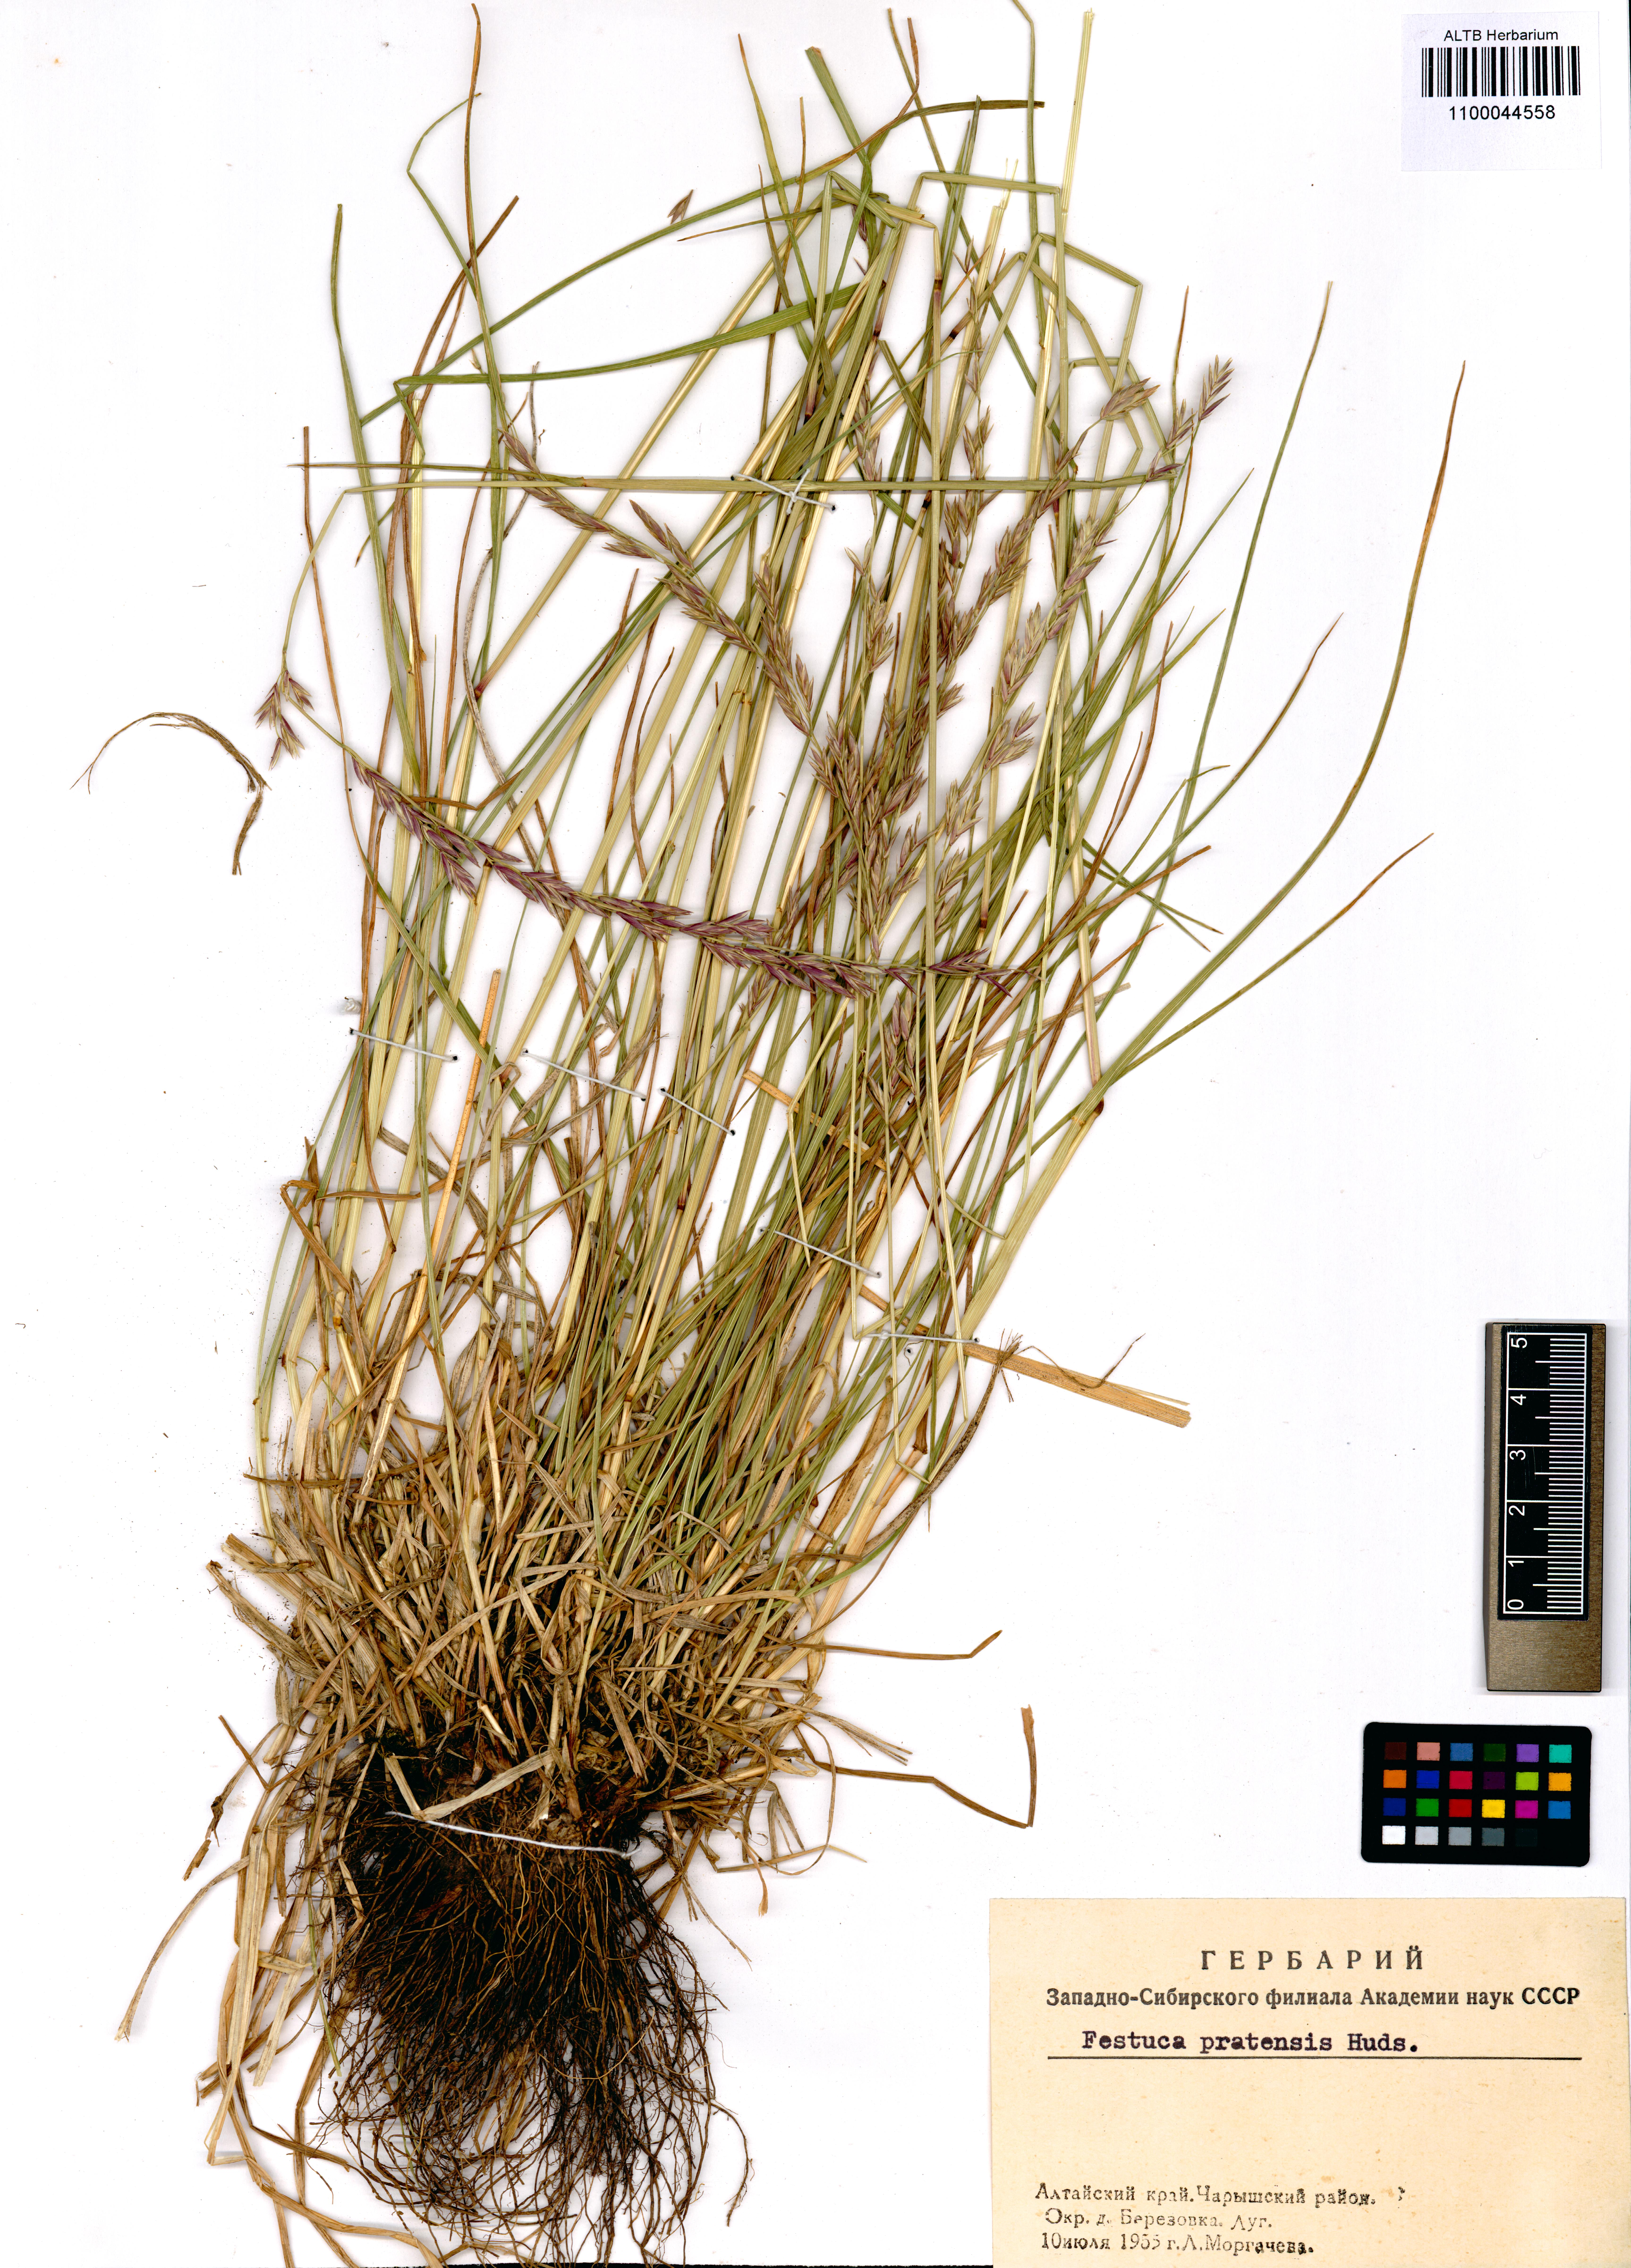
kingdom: Plantae
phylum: Tracheophyta
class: Liliopsida
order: Poales
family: Poaceae
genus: Lolium
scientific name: Lolium pratense
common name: Dover grass
